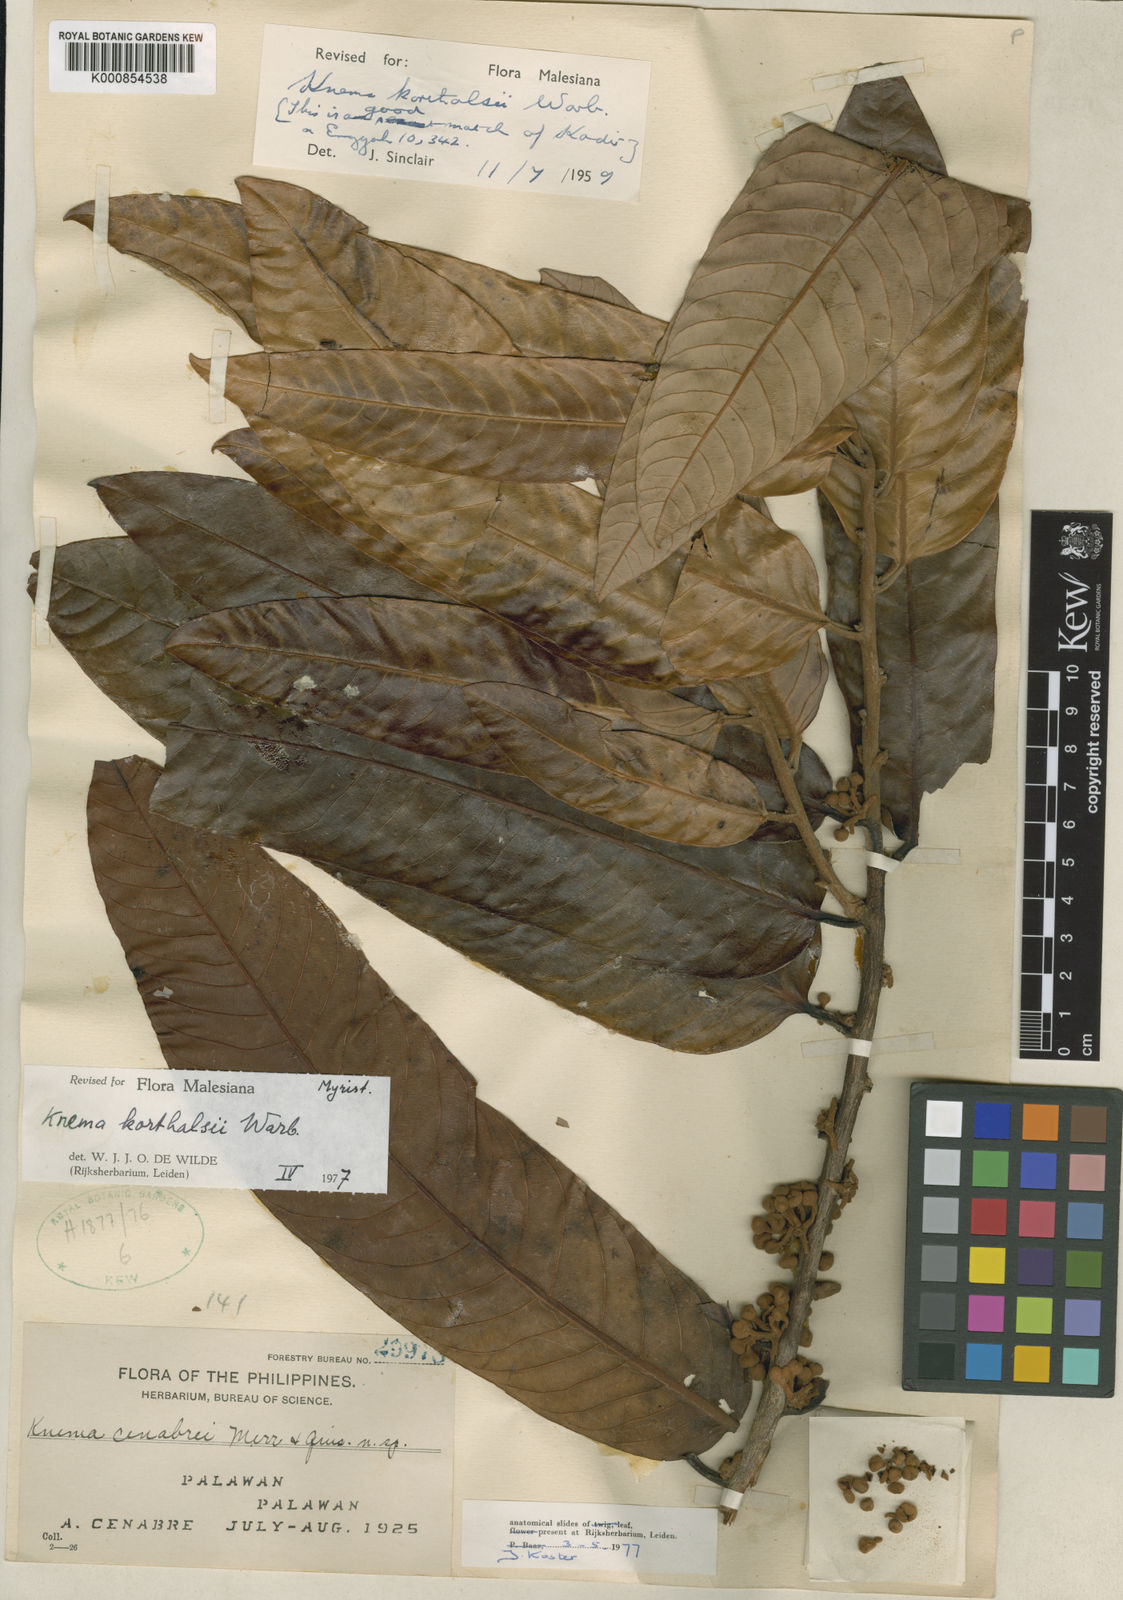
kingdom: Plantae
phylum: Tracheophyta
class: Magnoliopsida
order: Magnoliales
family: Myristicaceae
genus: Knema
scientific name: Knema korthalsii
